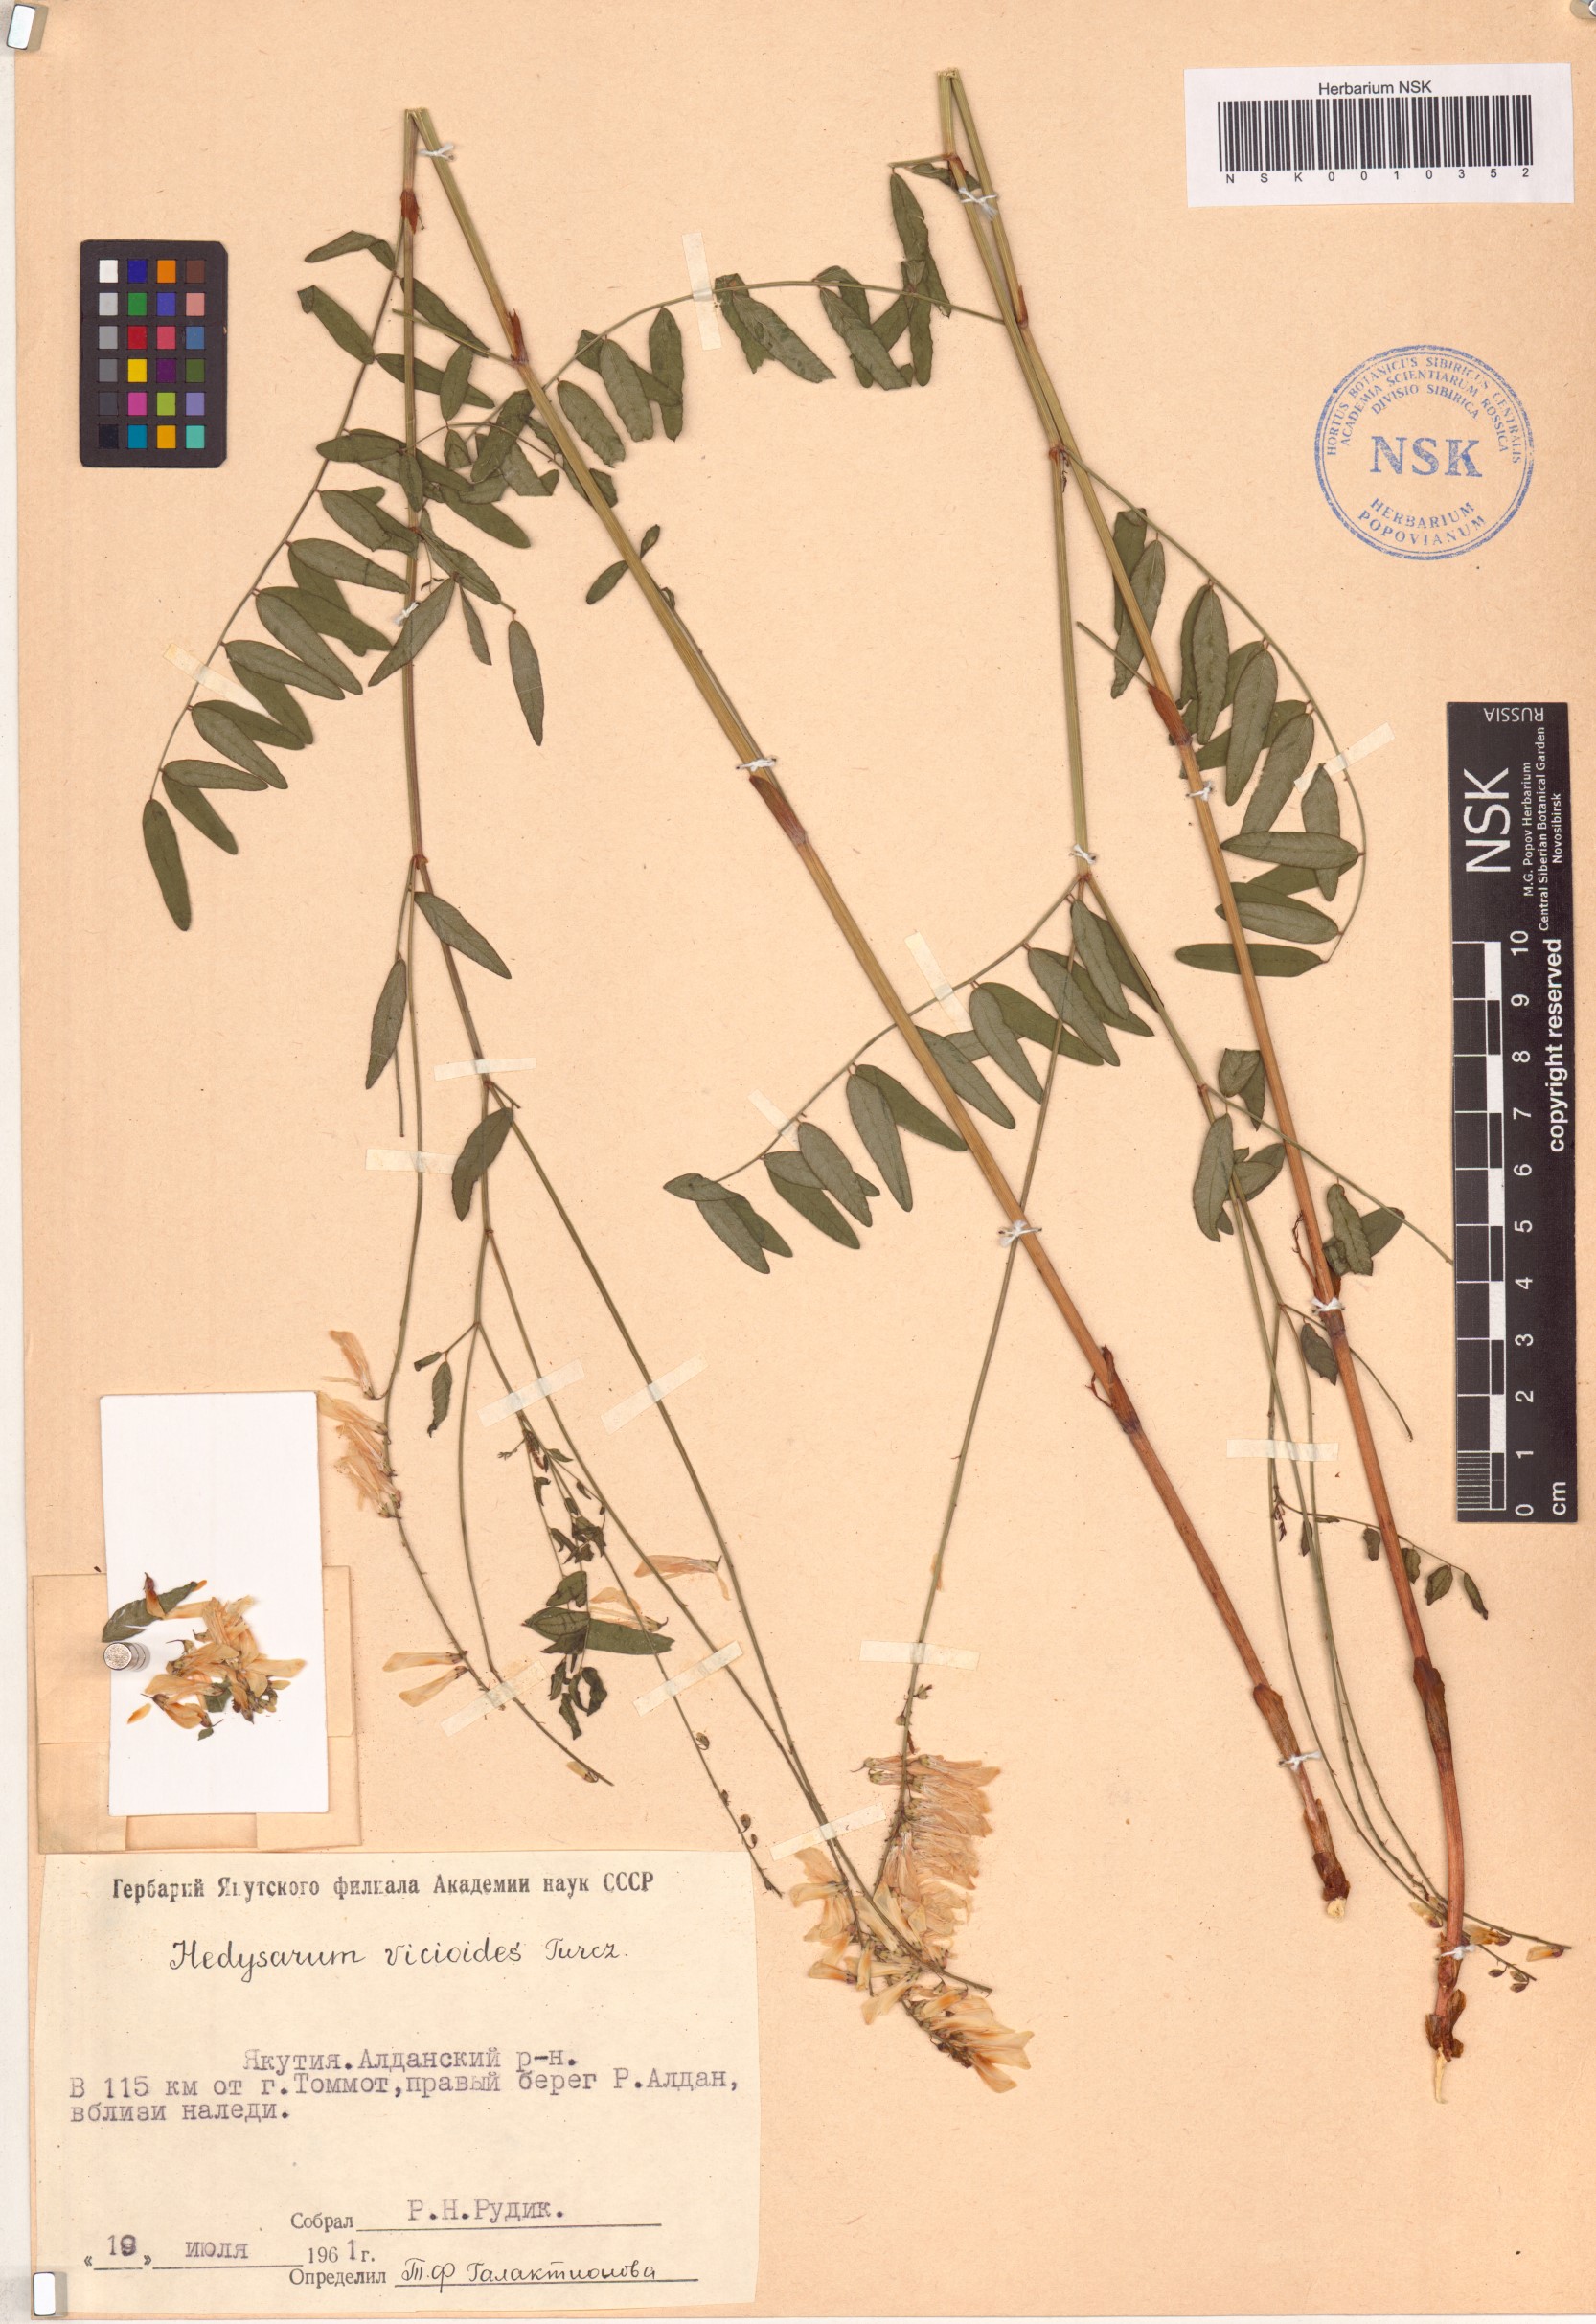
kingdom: Plantae
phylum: Tracheophyta
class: Magnoliopsida
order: Fabales
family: Fabaceae
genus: Hedysarum
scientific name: Hedysarum vicioides
